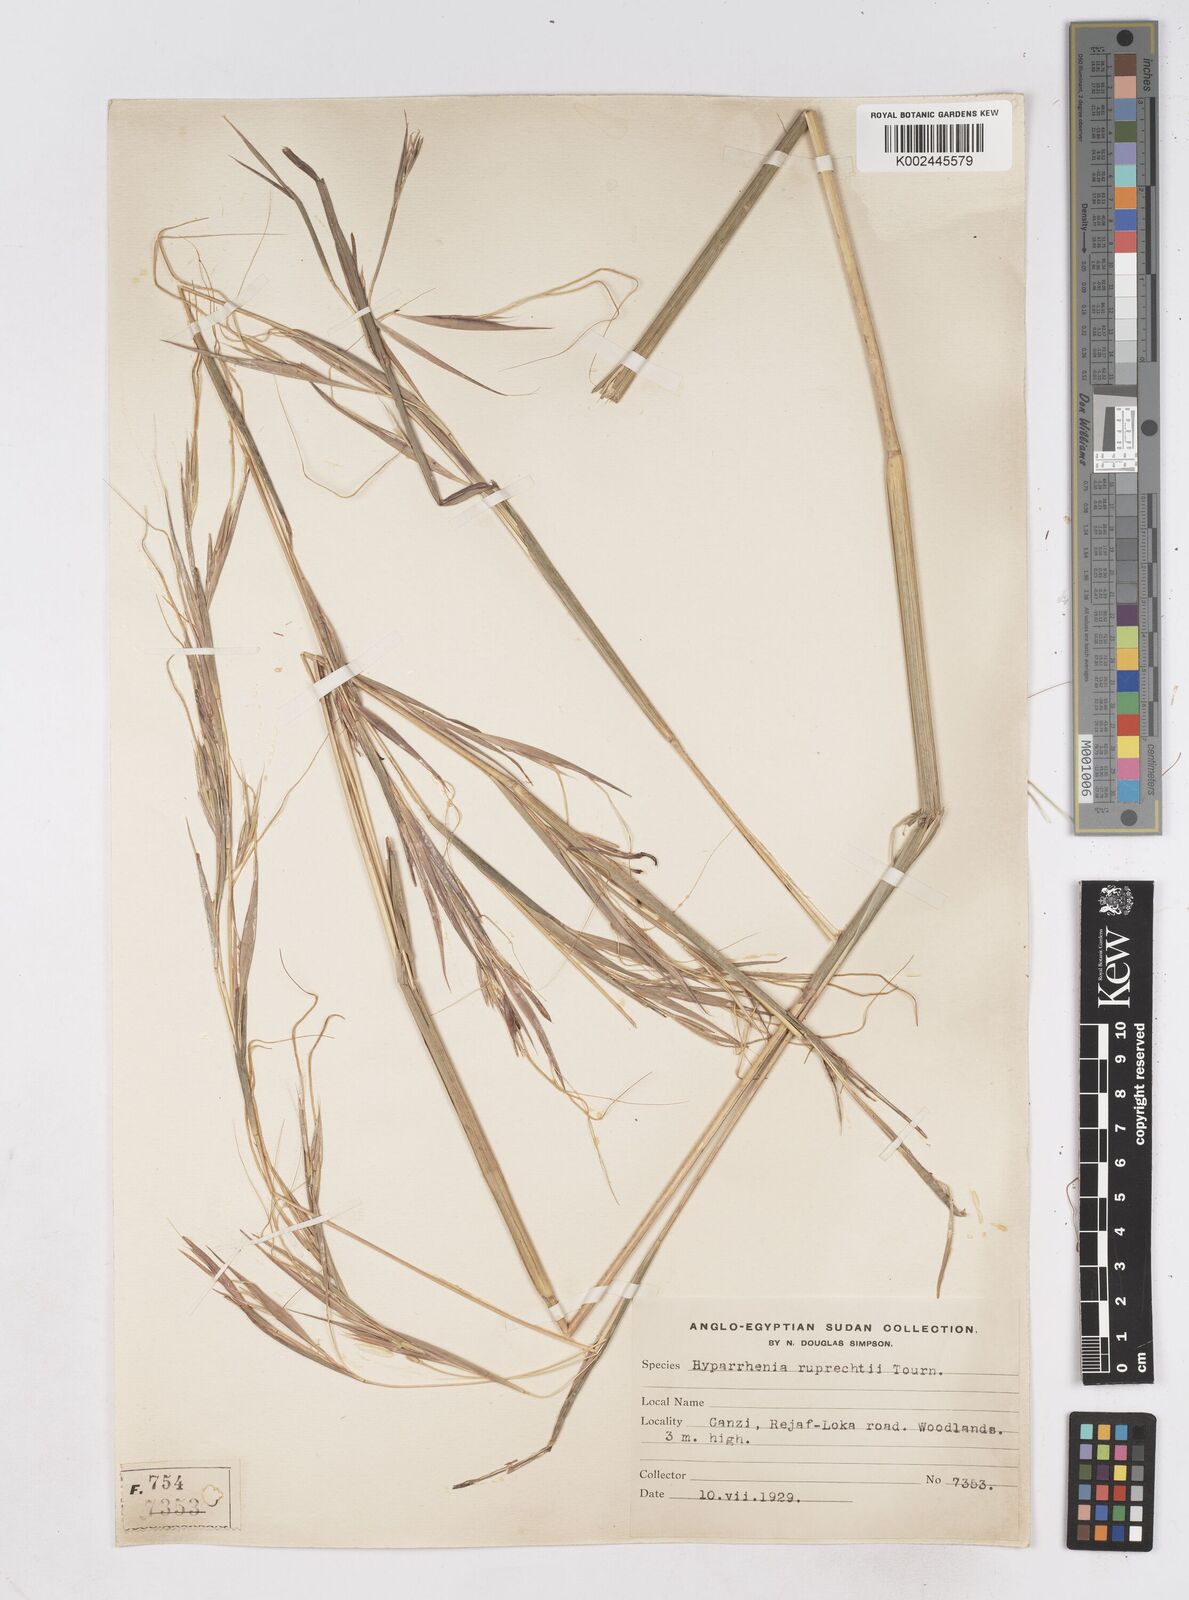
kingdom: Plantae
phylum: Tracheophyta
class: Liliopsida
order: Poales
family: Poaceae
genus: Hyperthelia
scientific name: Hyperthelia dissoluta
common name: Yellow thatching grass
